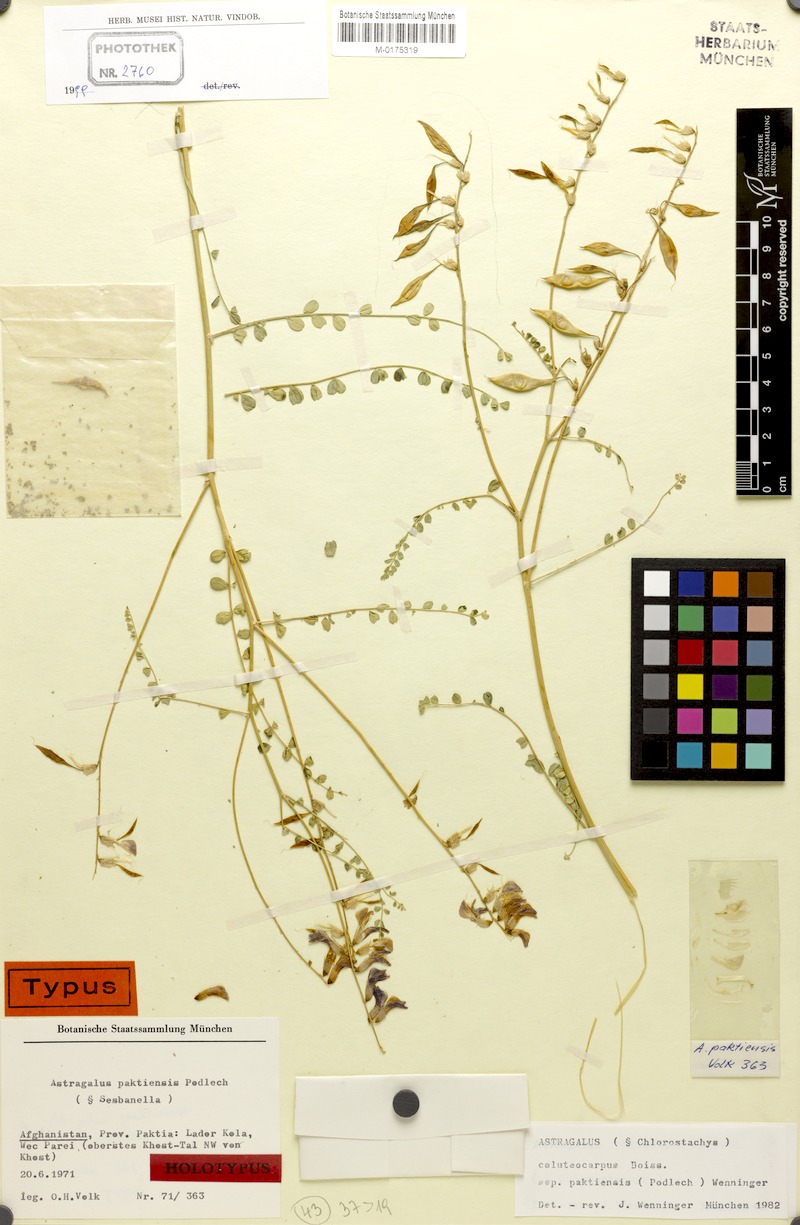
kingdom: Plantae
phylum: Tracheophyta
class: Magnoliopsida
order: Fabales
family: Fabaceae
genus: Astragalus
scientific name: Astragalus paktiensis
